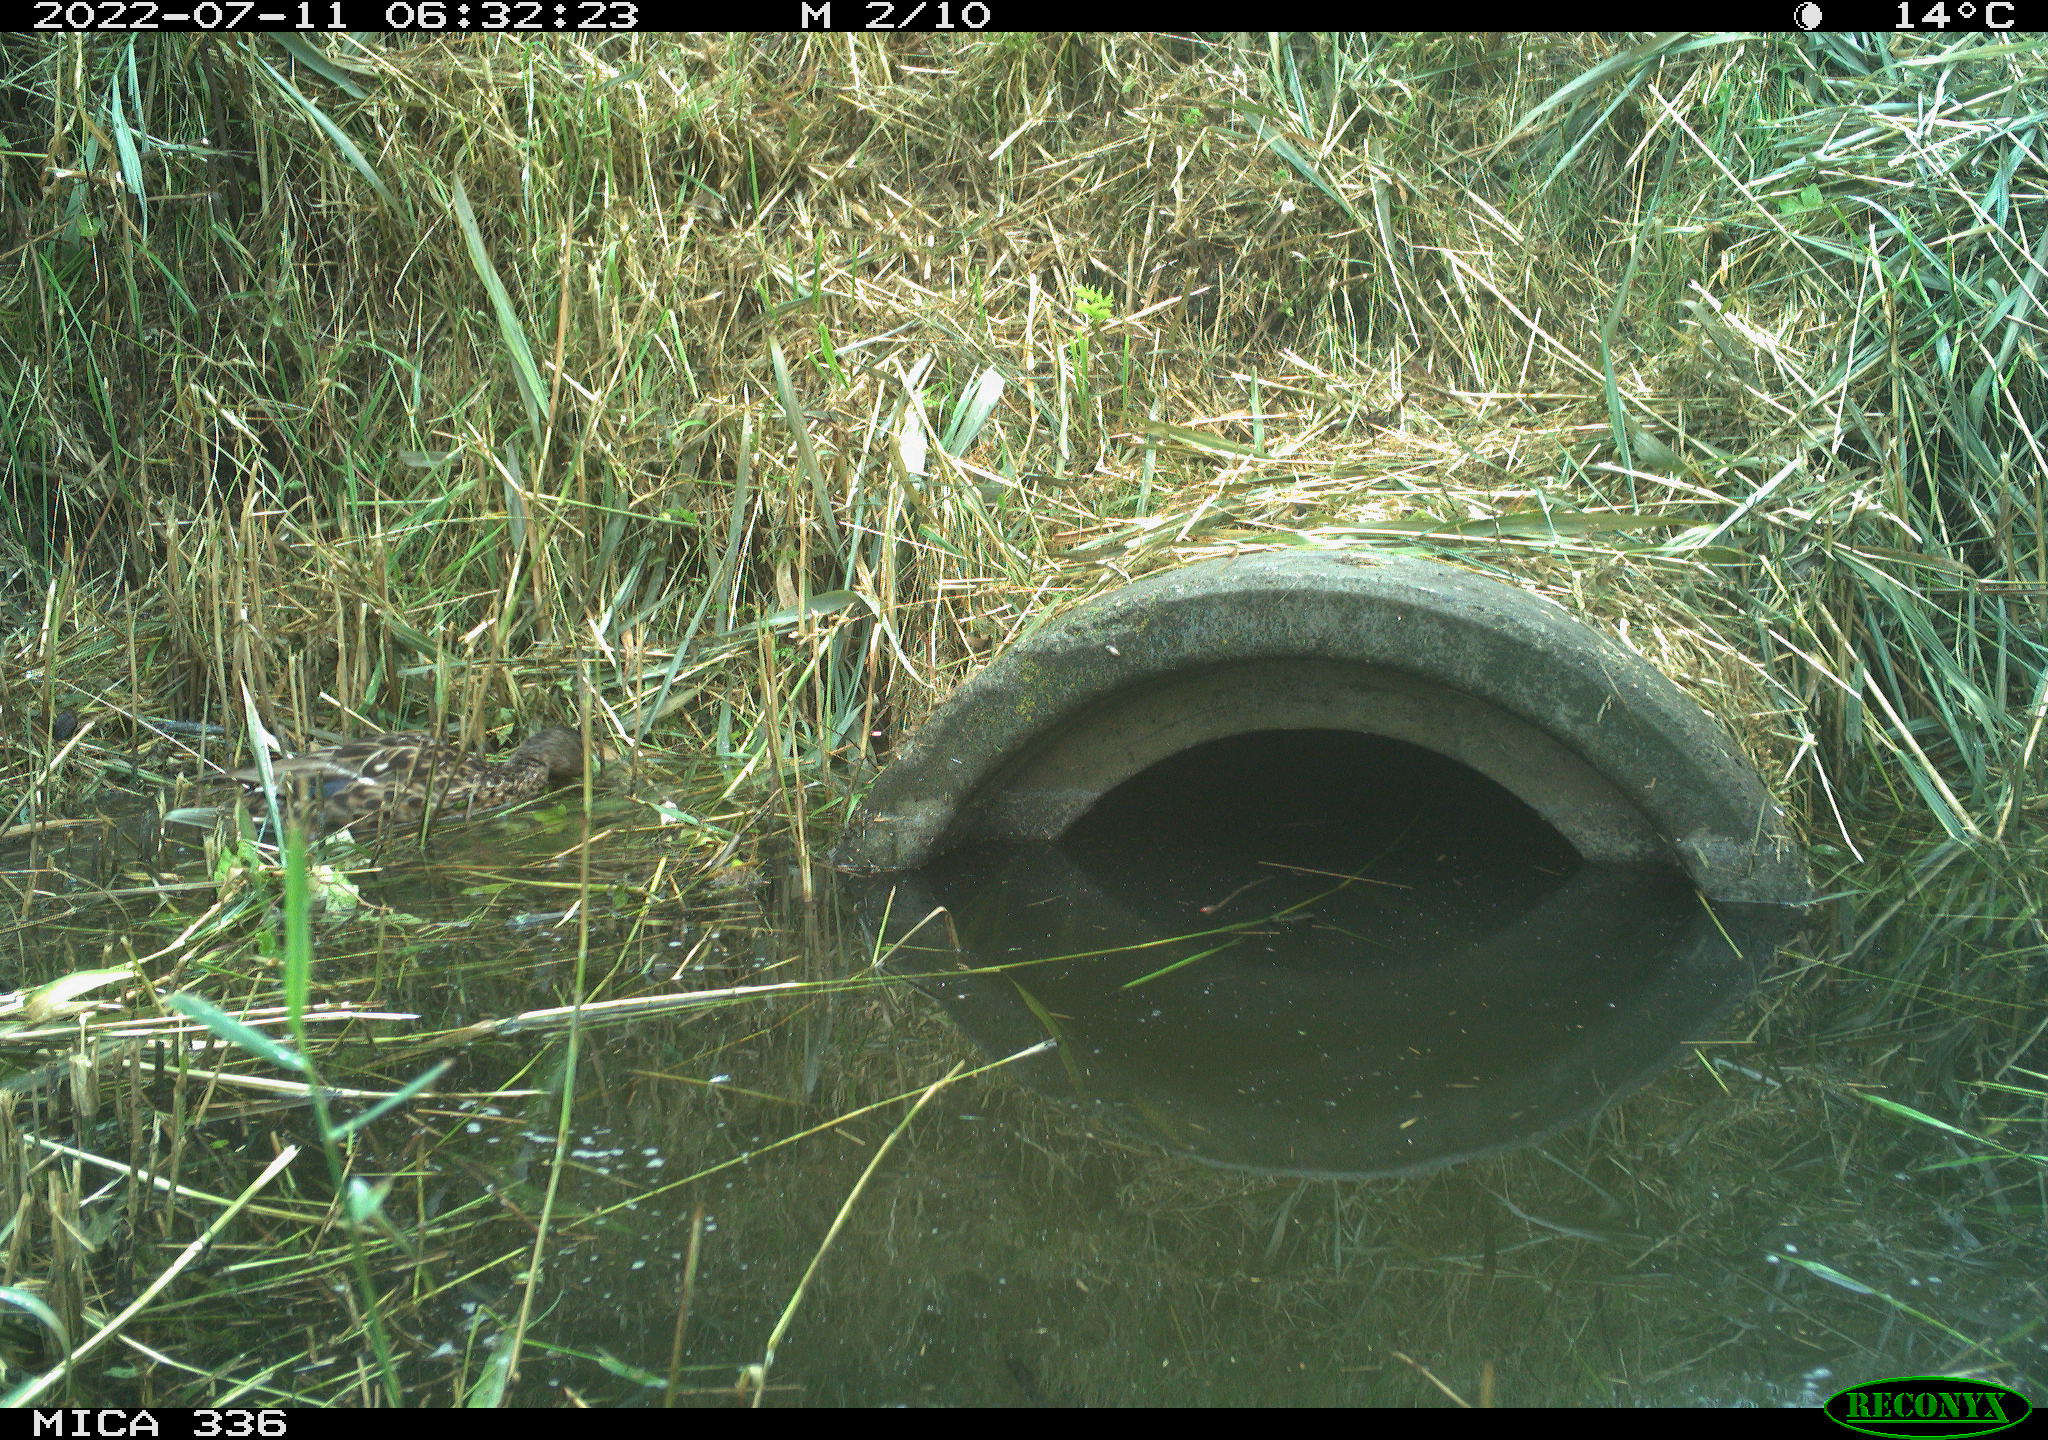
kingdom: Animalia
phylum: Chordata
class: Aves
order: Anseriformes
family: Anatidae
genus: Mareca
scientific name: Mareca strepera
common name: Gadwall
